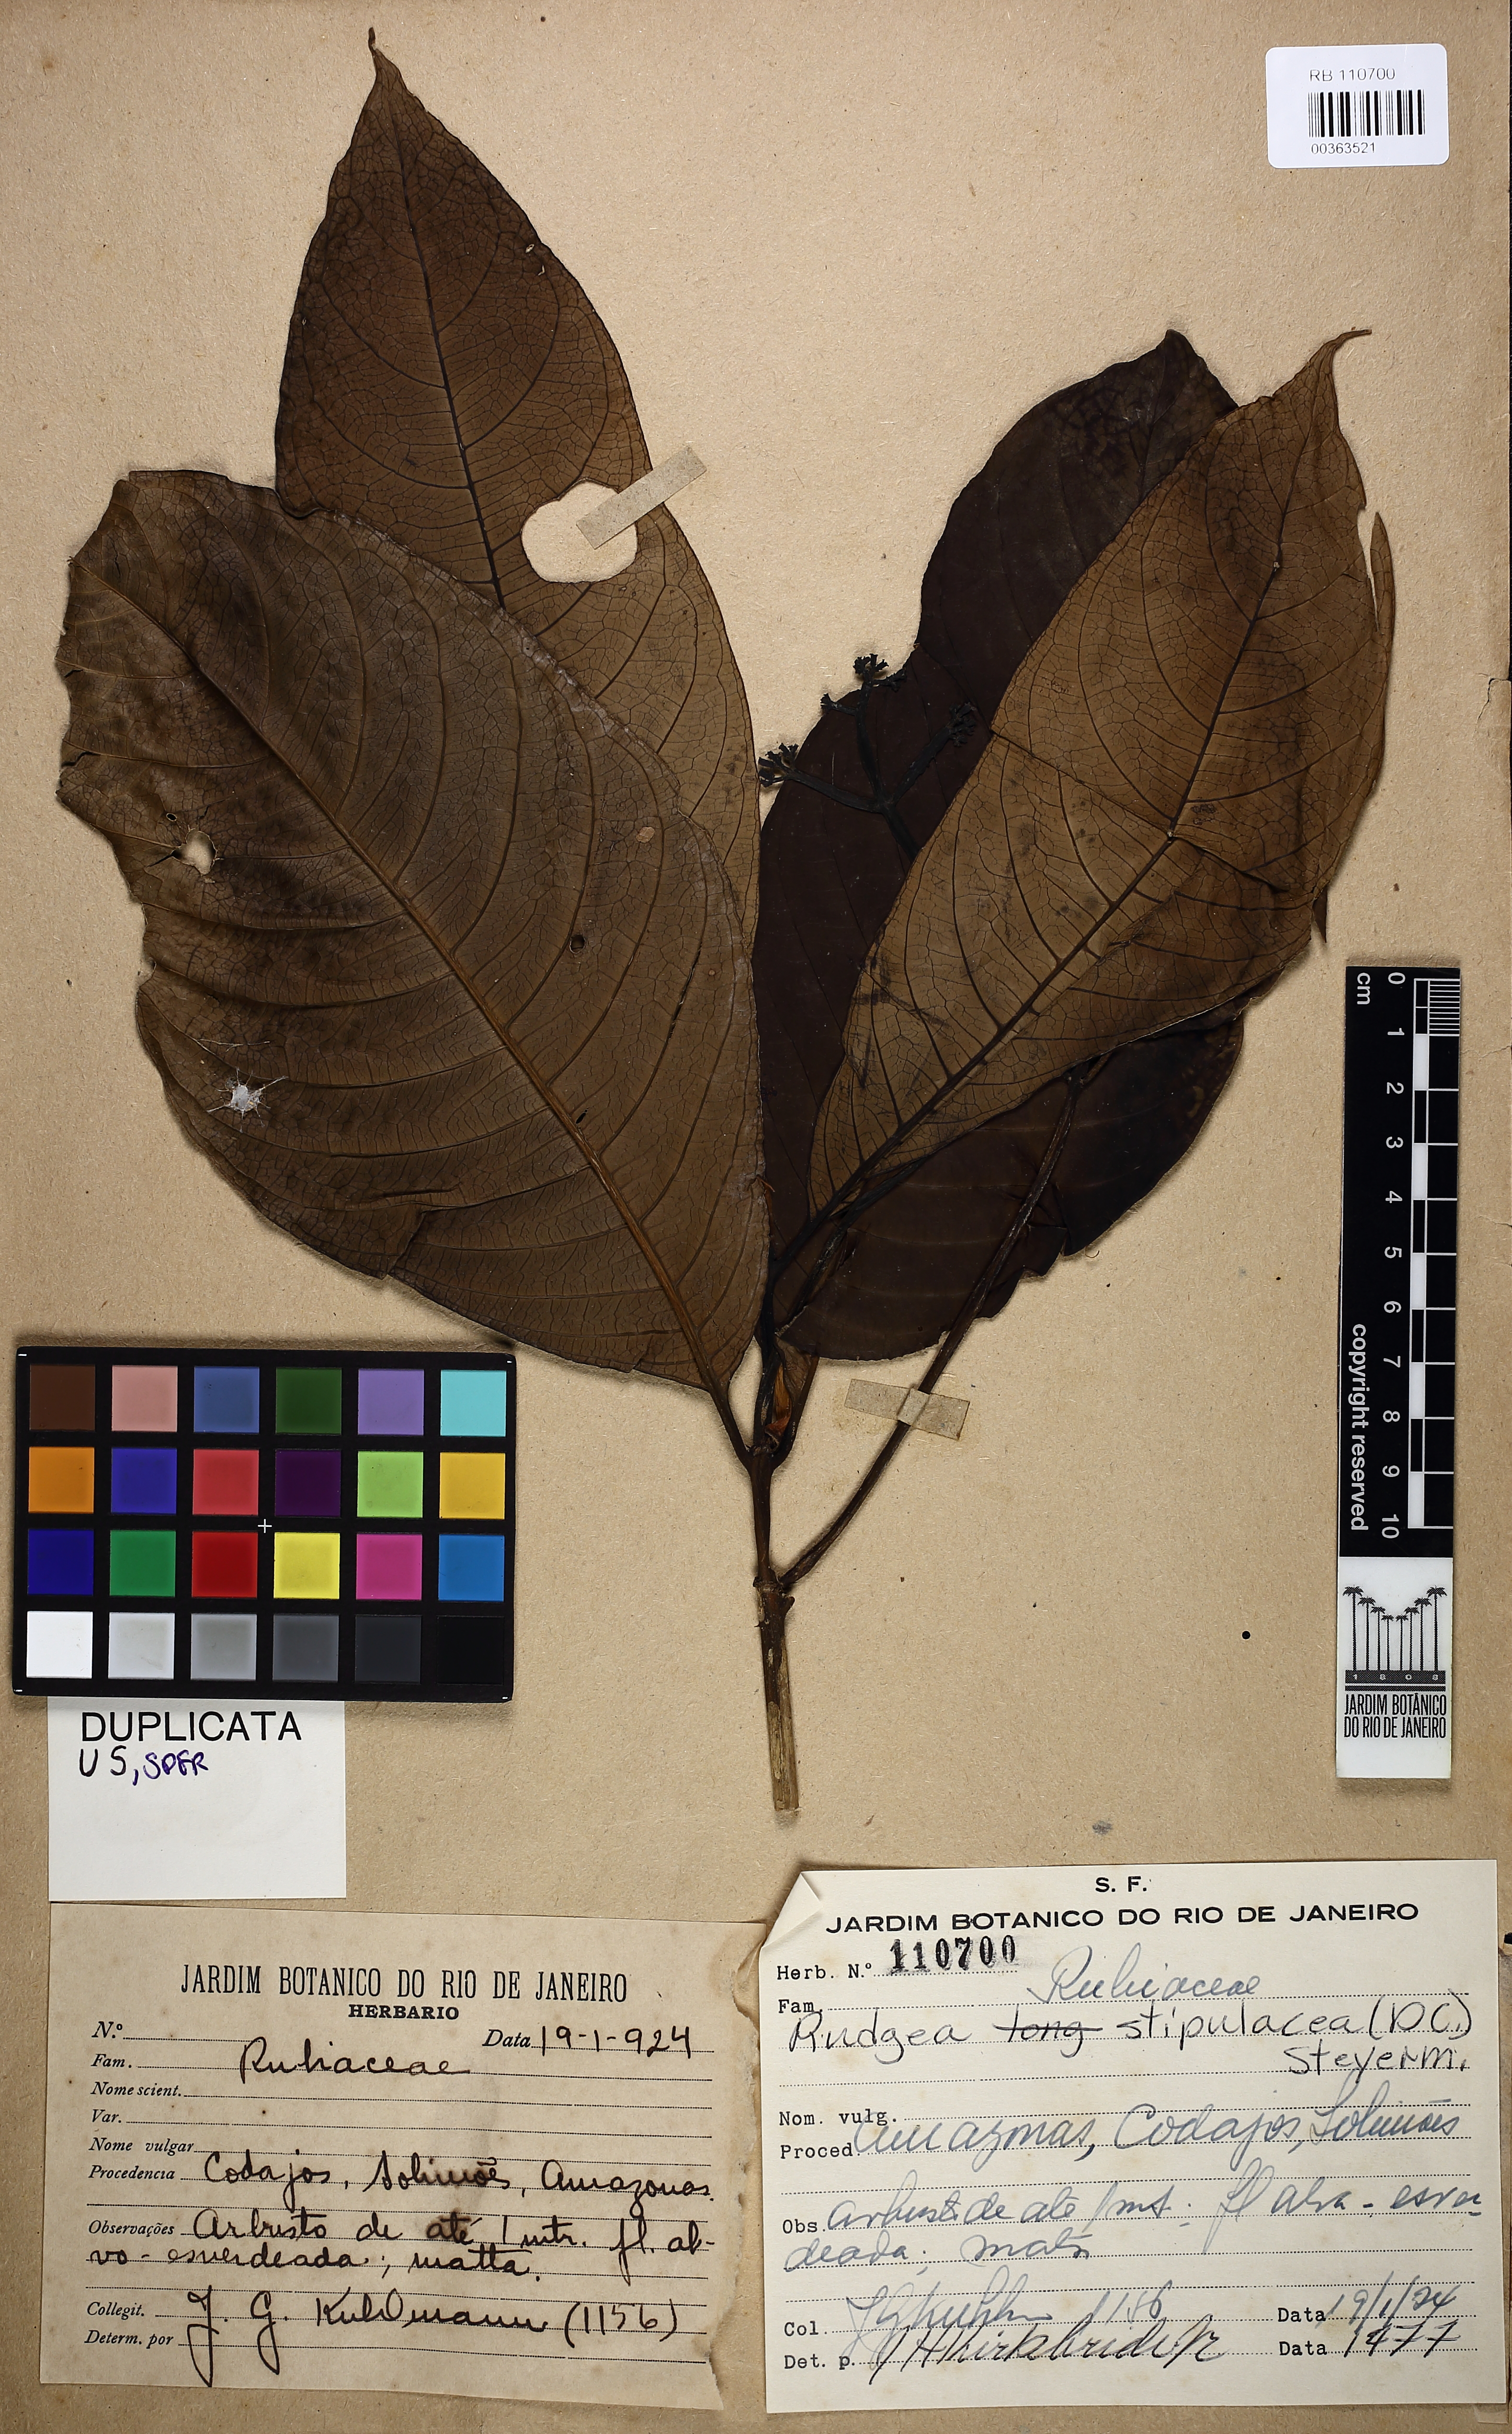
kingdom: Plantae
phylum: Tracheophyta
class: Magnoliopsida
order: Gentianales
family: Rubiaceae
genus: Rudgea
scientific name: Rudgea stipulacea
